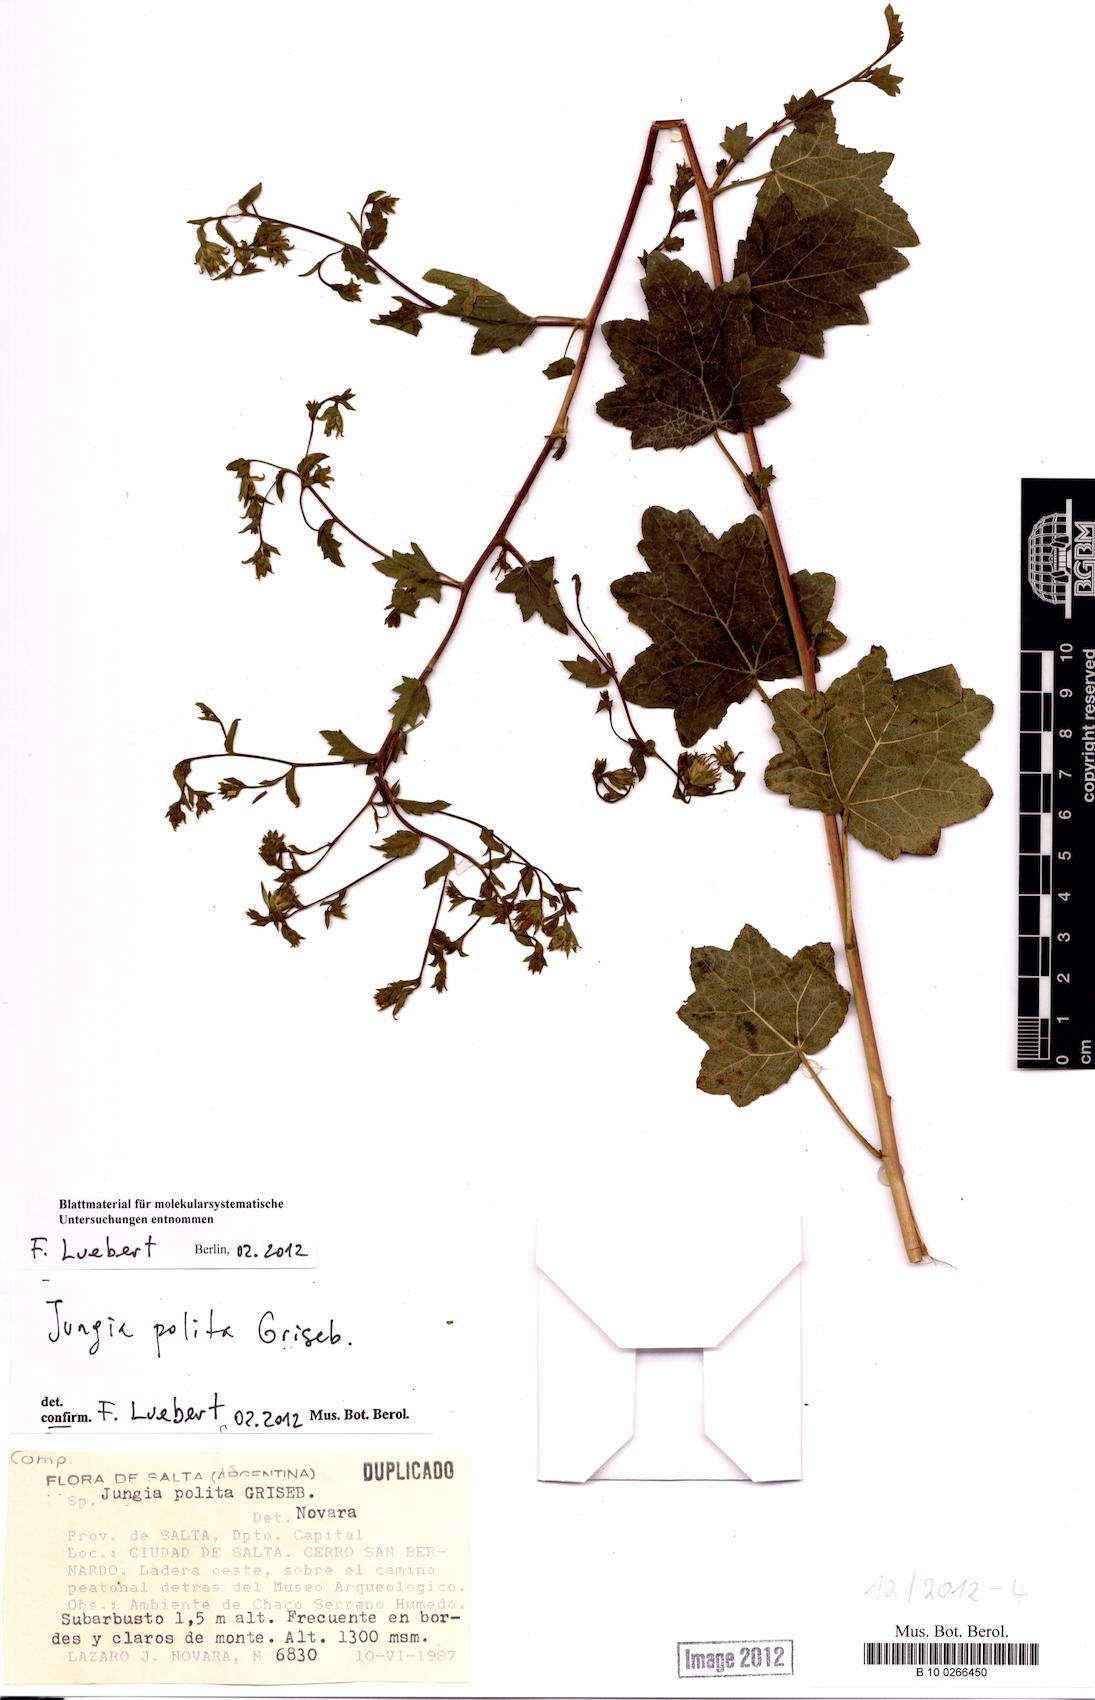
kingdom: Plantae
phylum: Tracheophyta
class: Magnoliopsida
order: Asterales
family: Asteraceae
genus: Jungia
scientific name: Jungia polita
